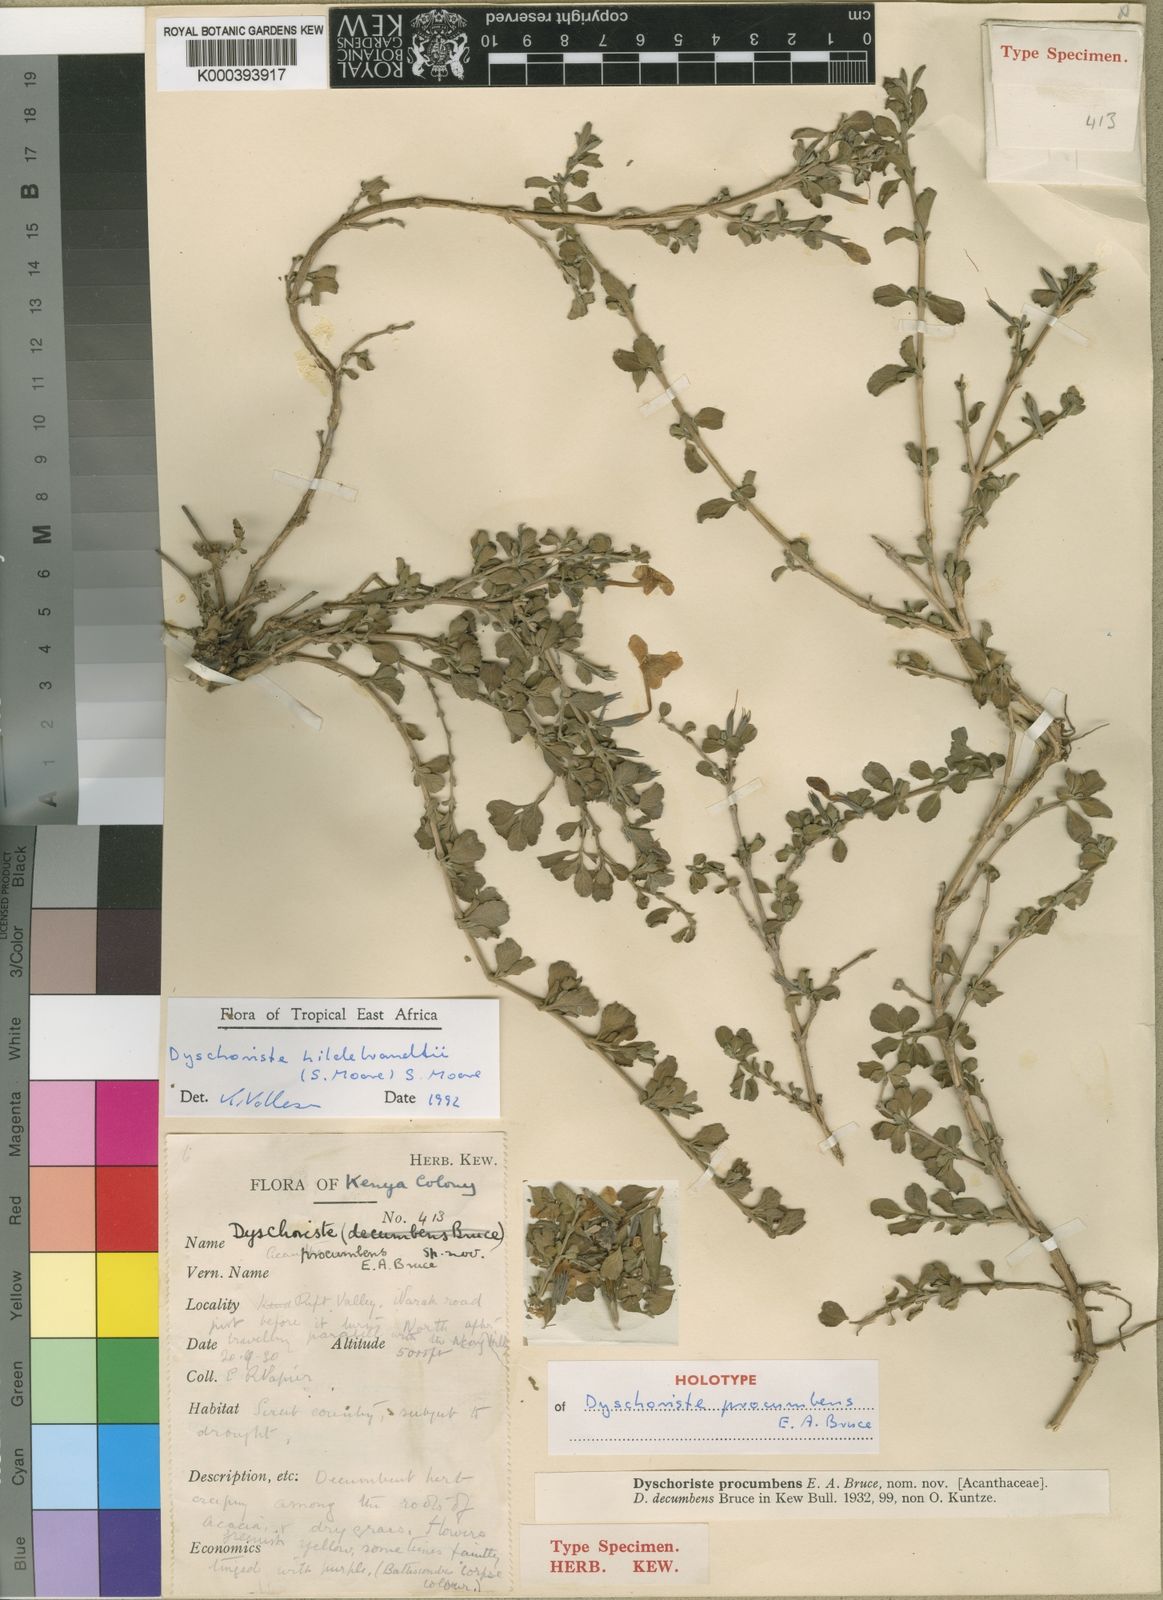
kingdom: Plantae
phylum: Tracheophyta
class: Magnoliopsida
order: Lamiales
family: Acanthaceae
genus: Dyschoriste
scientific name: Dyschoriste
